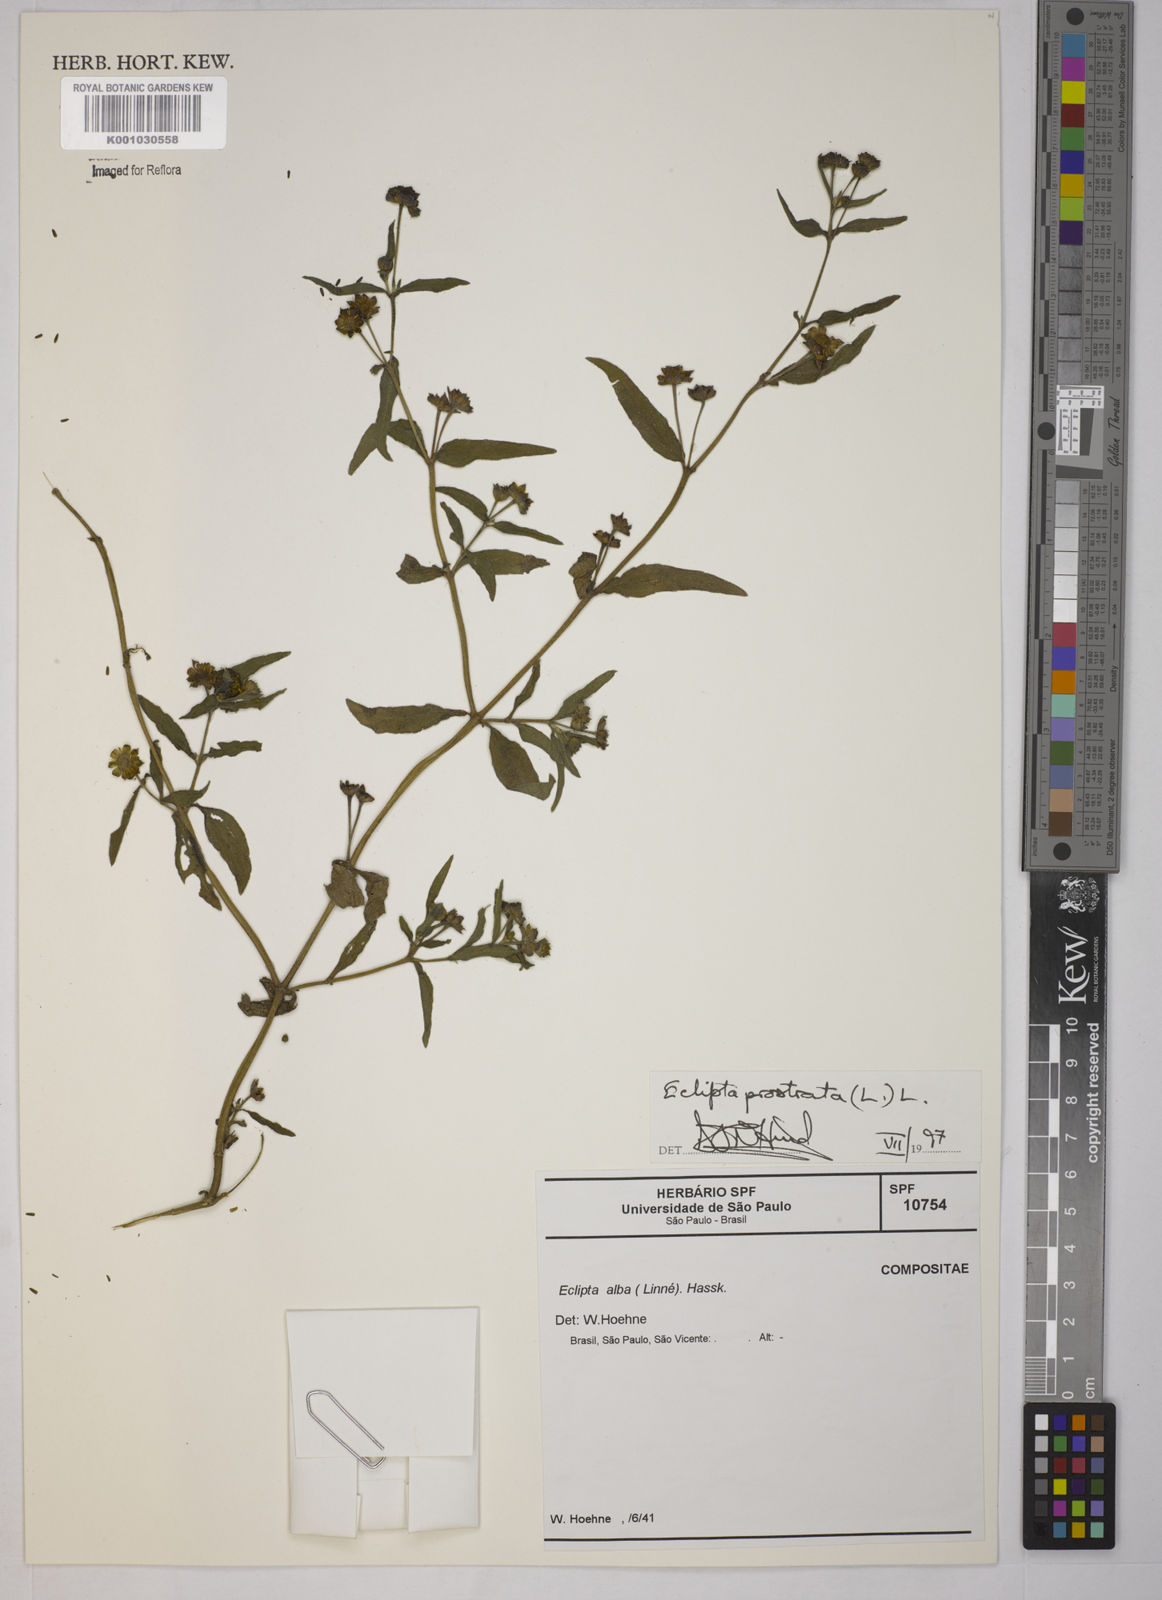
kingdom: Plantae
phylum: Tracheophyta
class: Magnoliopsida
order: Asterales
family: Asteraceae
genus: Eclipta
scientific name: Eclipta prostrata
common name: False daisy
